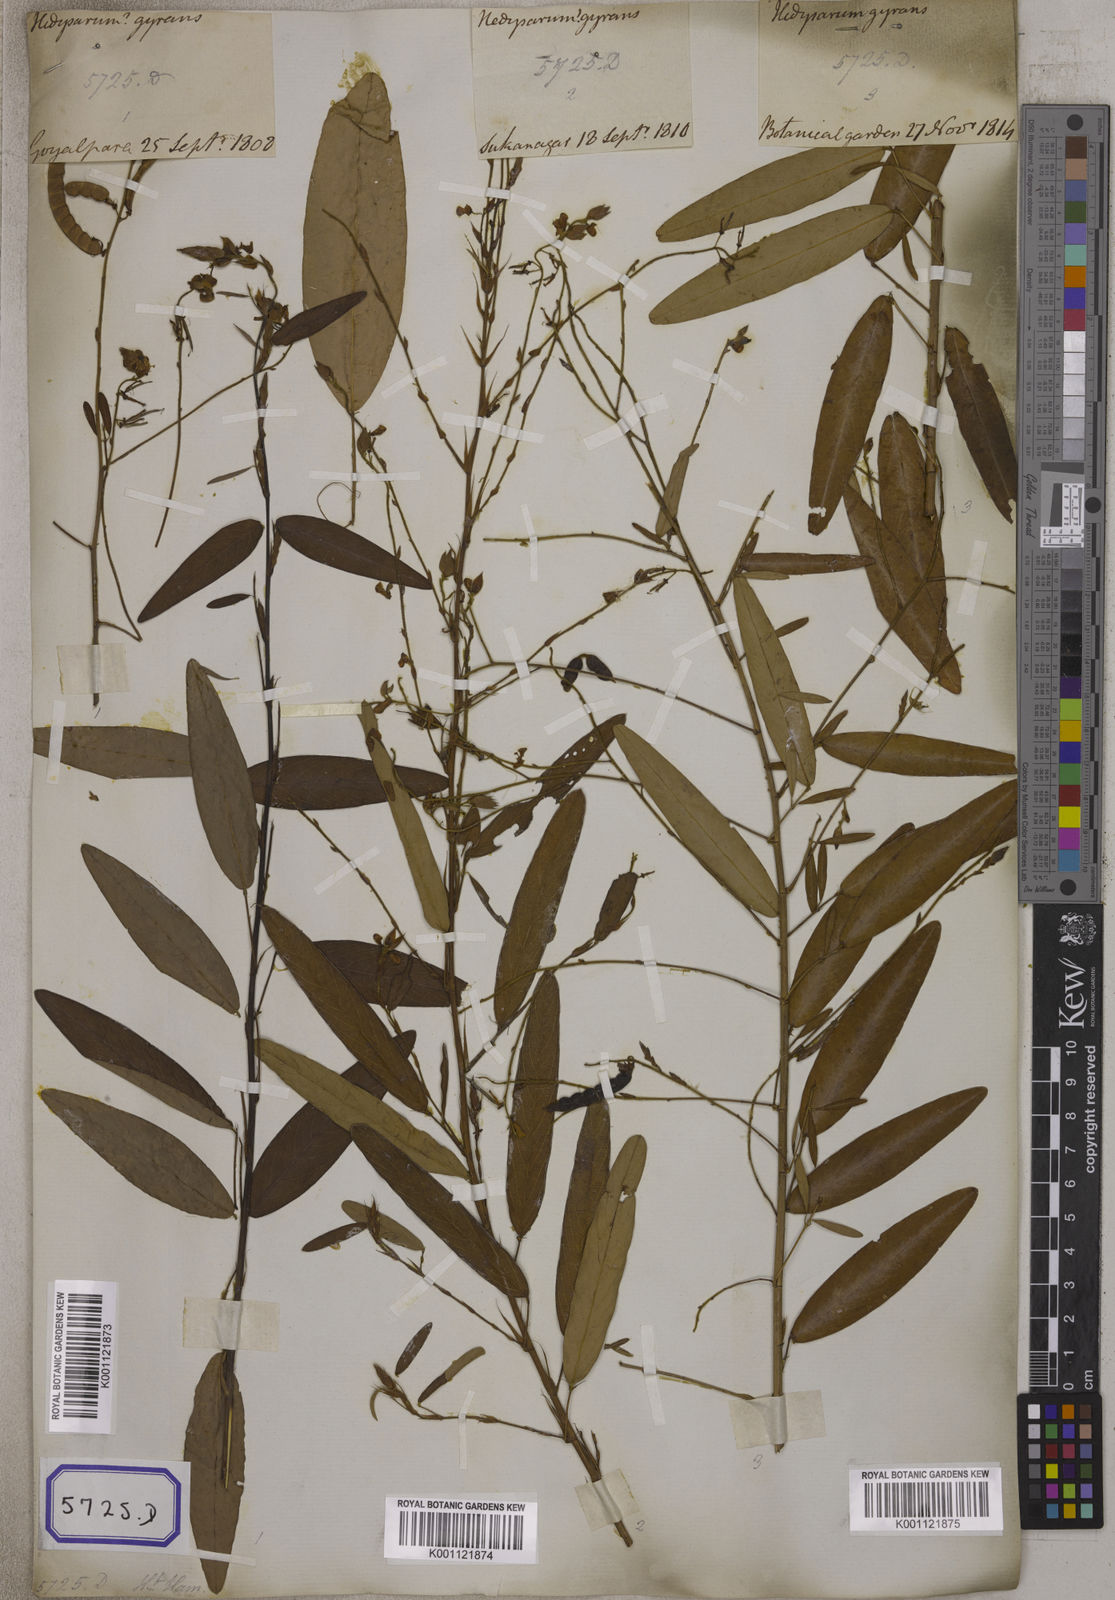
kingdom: Plantae
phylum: Tracheophyta
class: Magnoliopsida
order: Fabales
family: Fabaceae
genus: Codariocalyx
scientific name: Codariocalyx motorius
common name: Telegraph-plant
